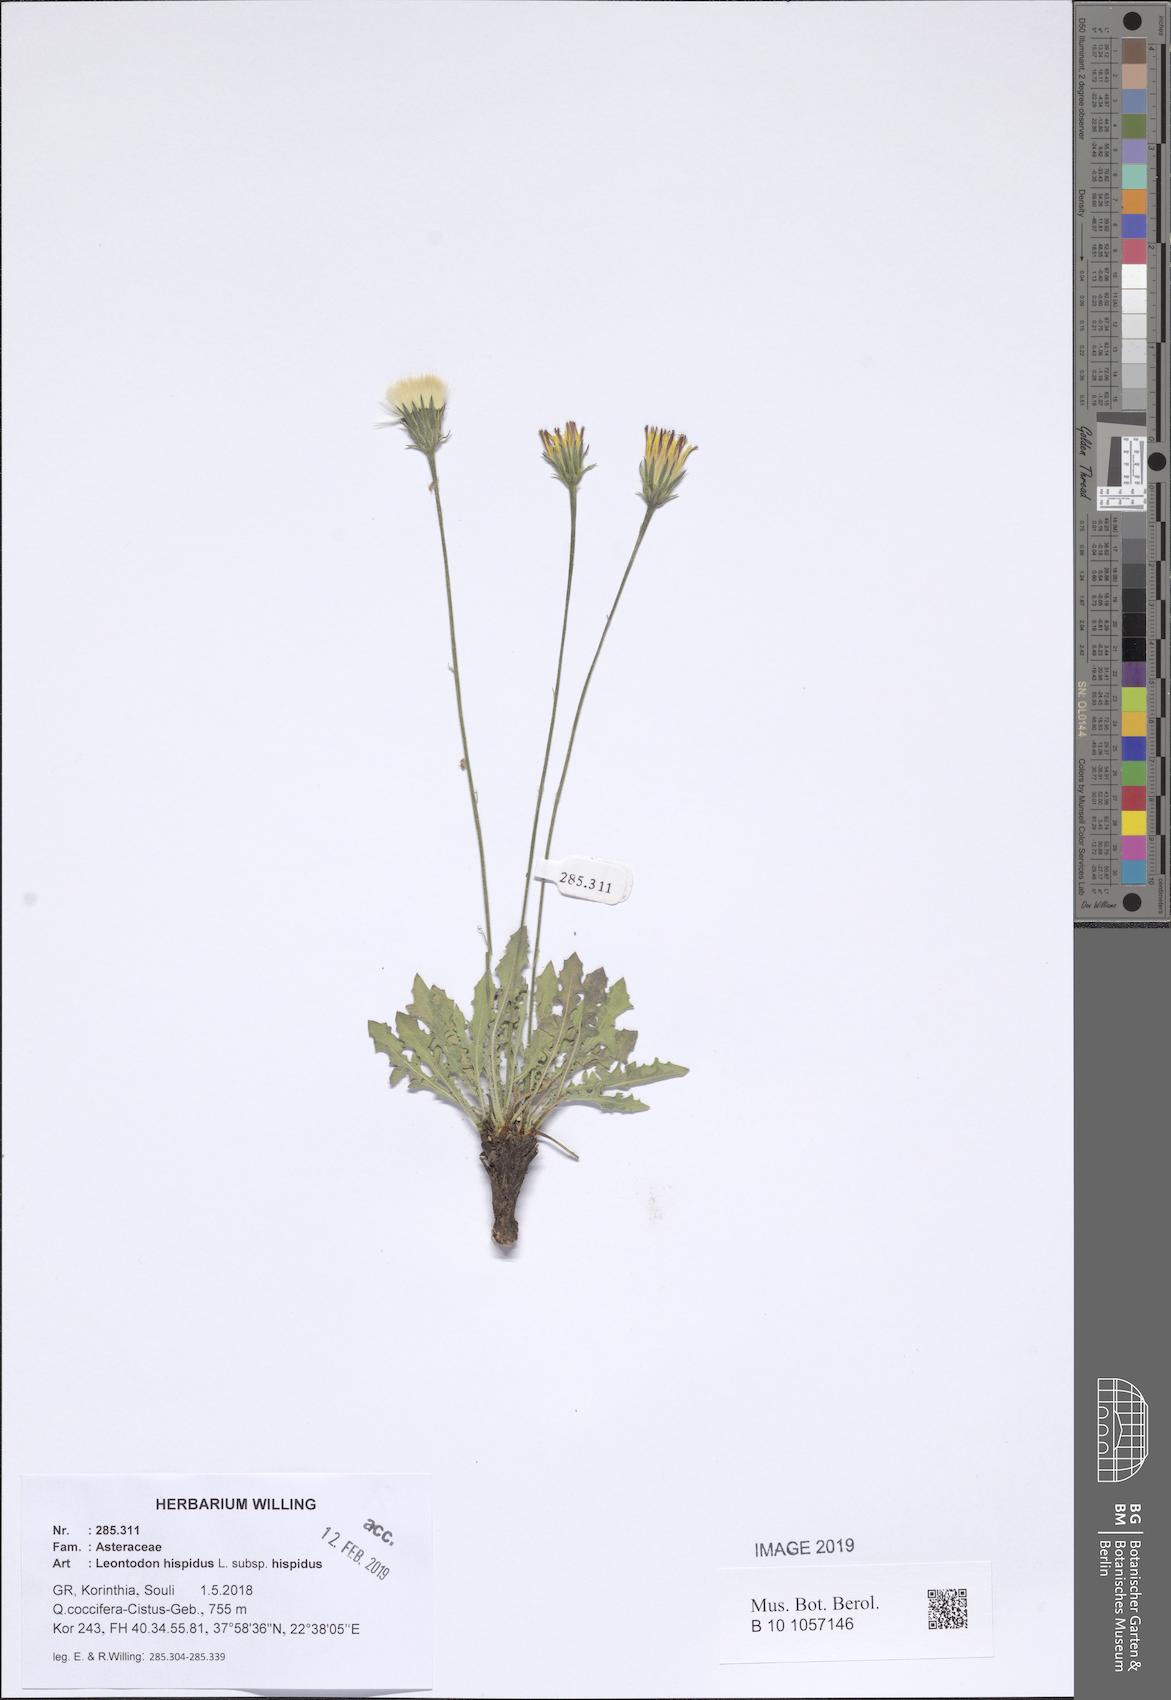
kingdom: Plantae
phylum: Tracheophyta
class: Magnoliopsida
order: Asterales
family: Asteraceae
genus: Leontodon
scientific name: Leontodon hispidus
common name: Rough hawkbit
